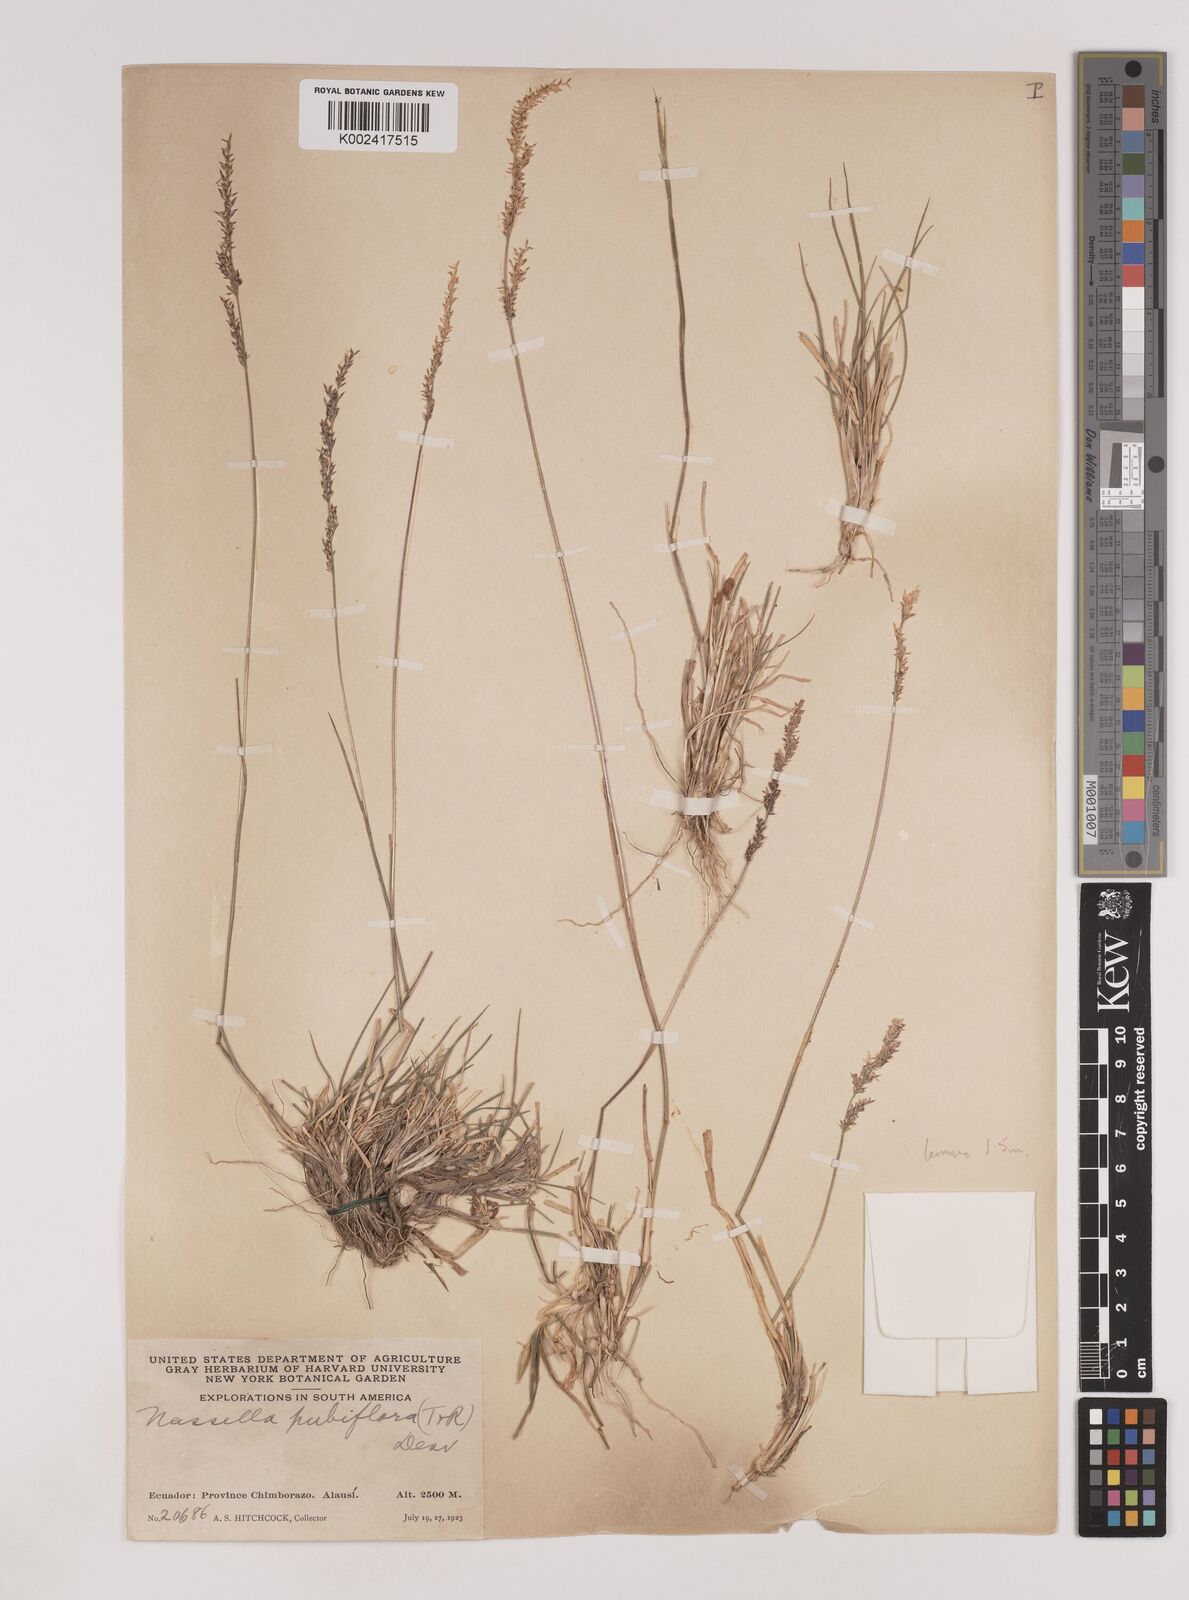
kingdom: Plantae
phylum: Tracheophyta
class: Liliopsida
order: Poales
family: Poaceae
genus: Nassella
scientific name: Nassella pubiflora
